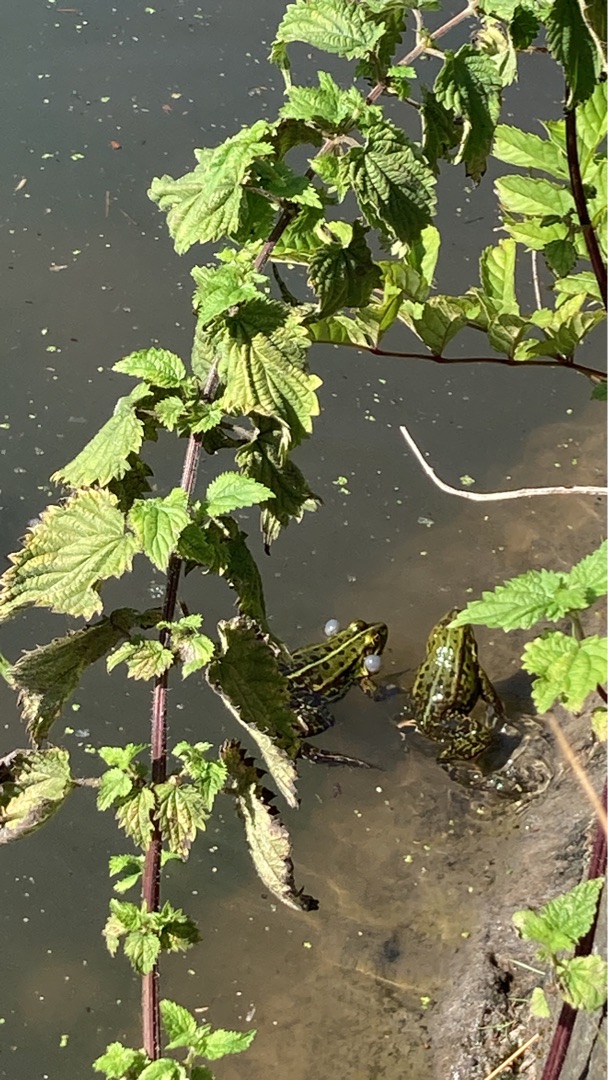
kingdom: Animalia
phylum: Chordata
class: Amphibia
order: Anura
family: Ranidae
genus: Pelophylax
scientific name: Pelophylax lessonae
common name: Grøn frø
